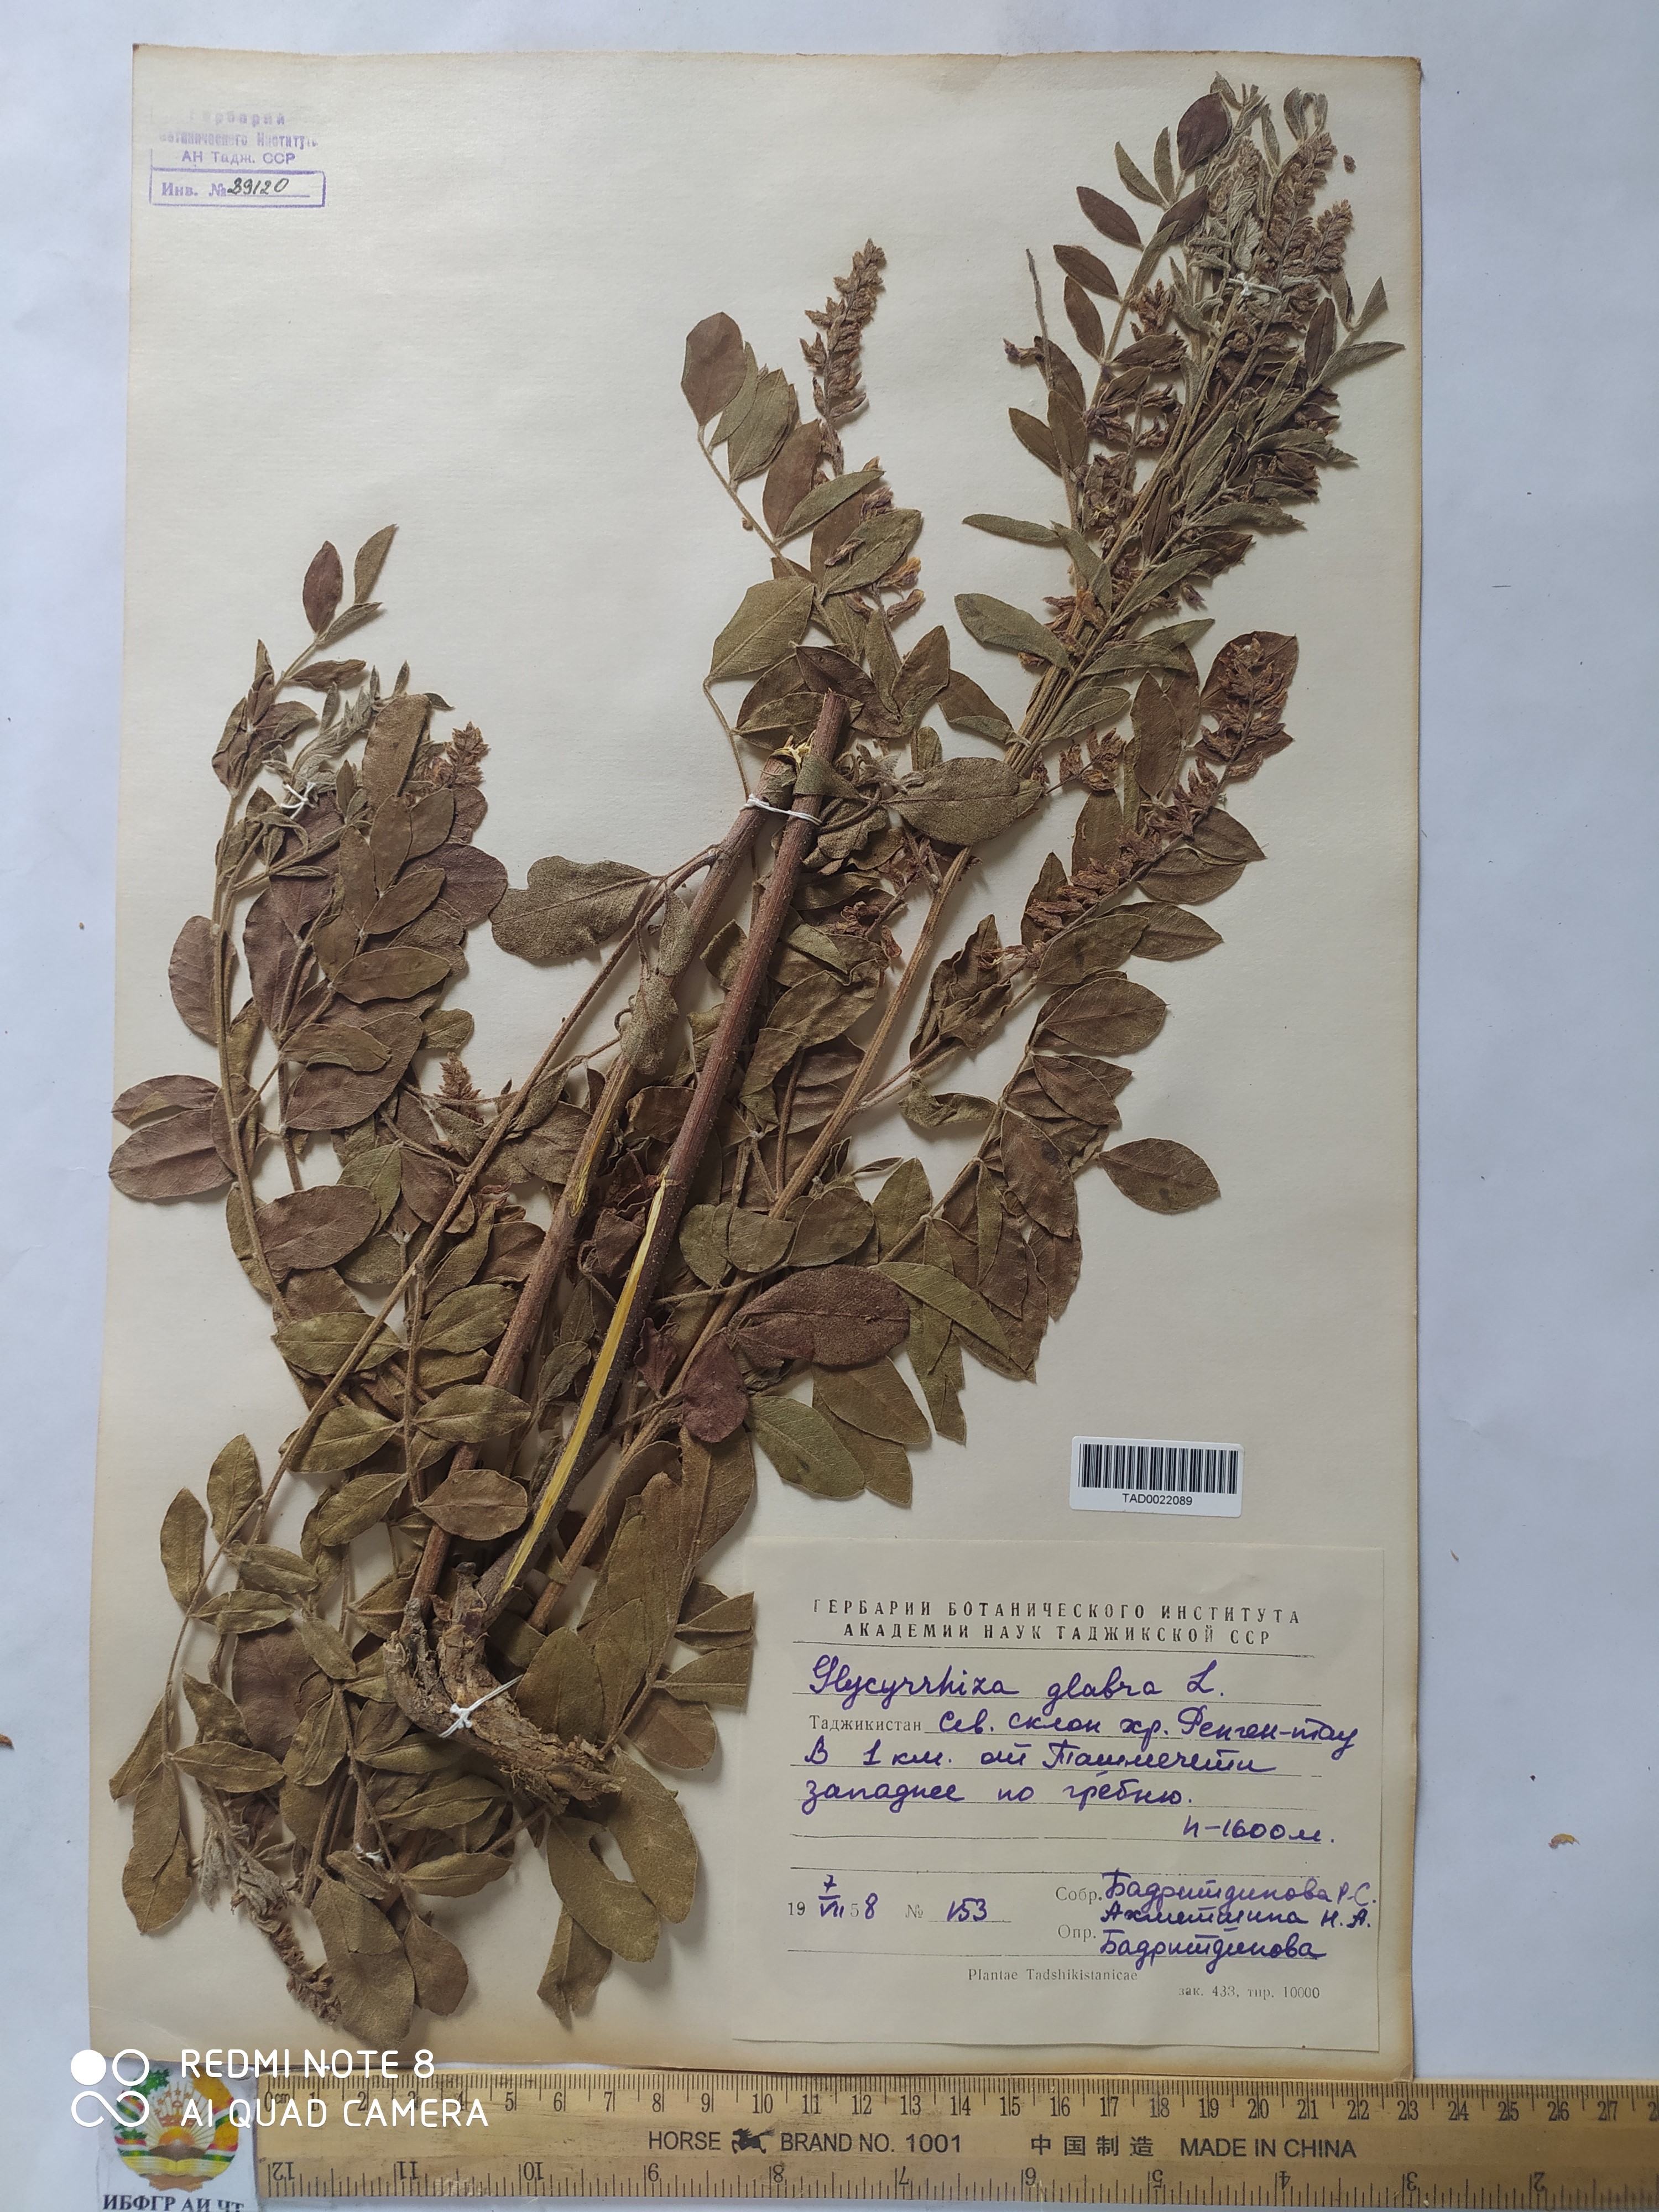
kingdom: Plantae
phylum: Tracheophyta
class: Magnoliopsida
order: Fabales
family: Fabaceae
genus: Glycyrrhiza
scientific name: Glycyrrhiza glabra
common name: Liquorice
